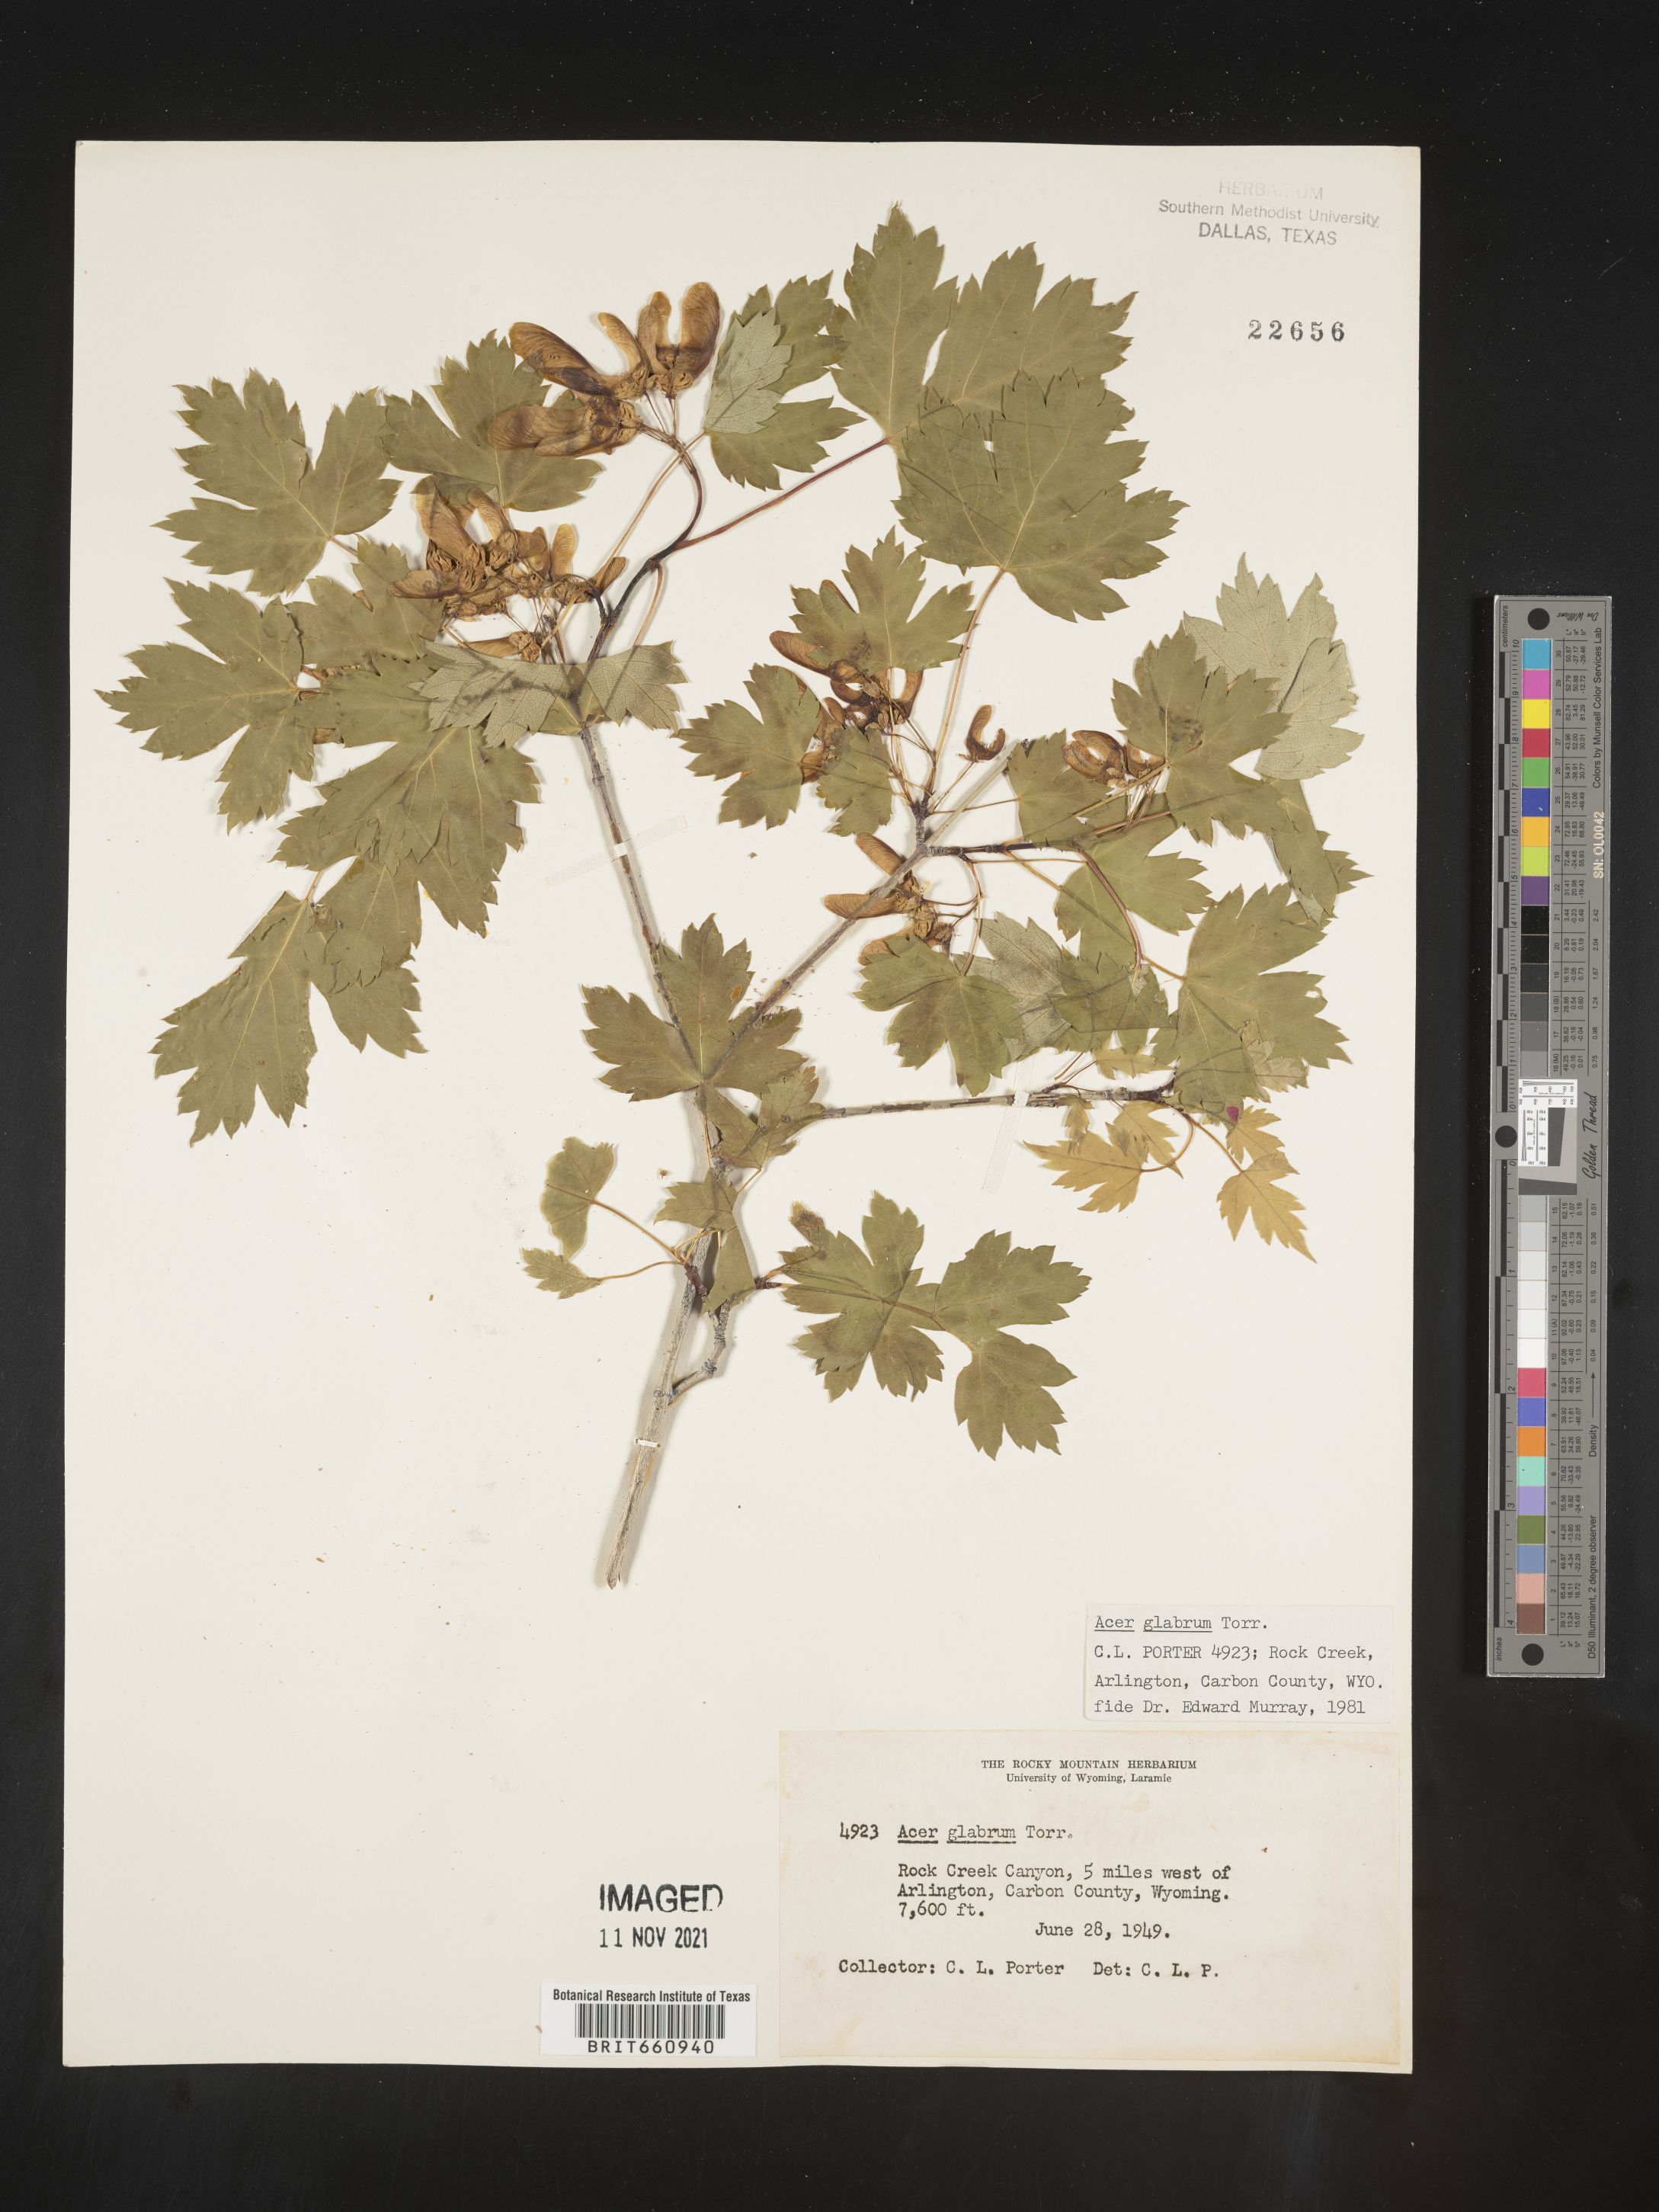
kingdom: Plantae
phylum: Tracheophyta
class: Magnoliopsida
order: Sapindales
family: Sapindaceae
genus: Acer
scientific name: Acer glabrum
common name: Rocky mountain maple
